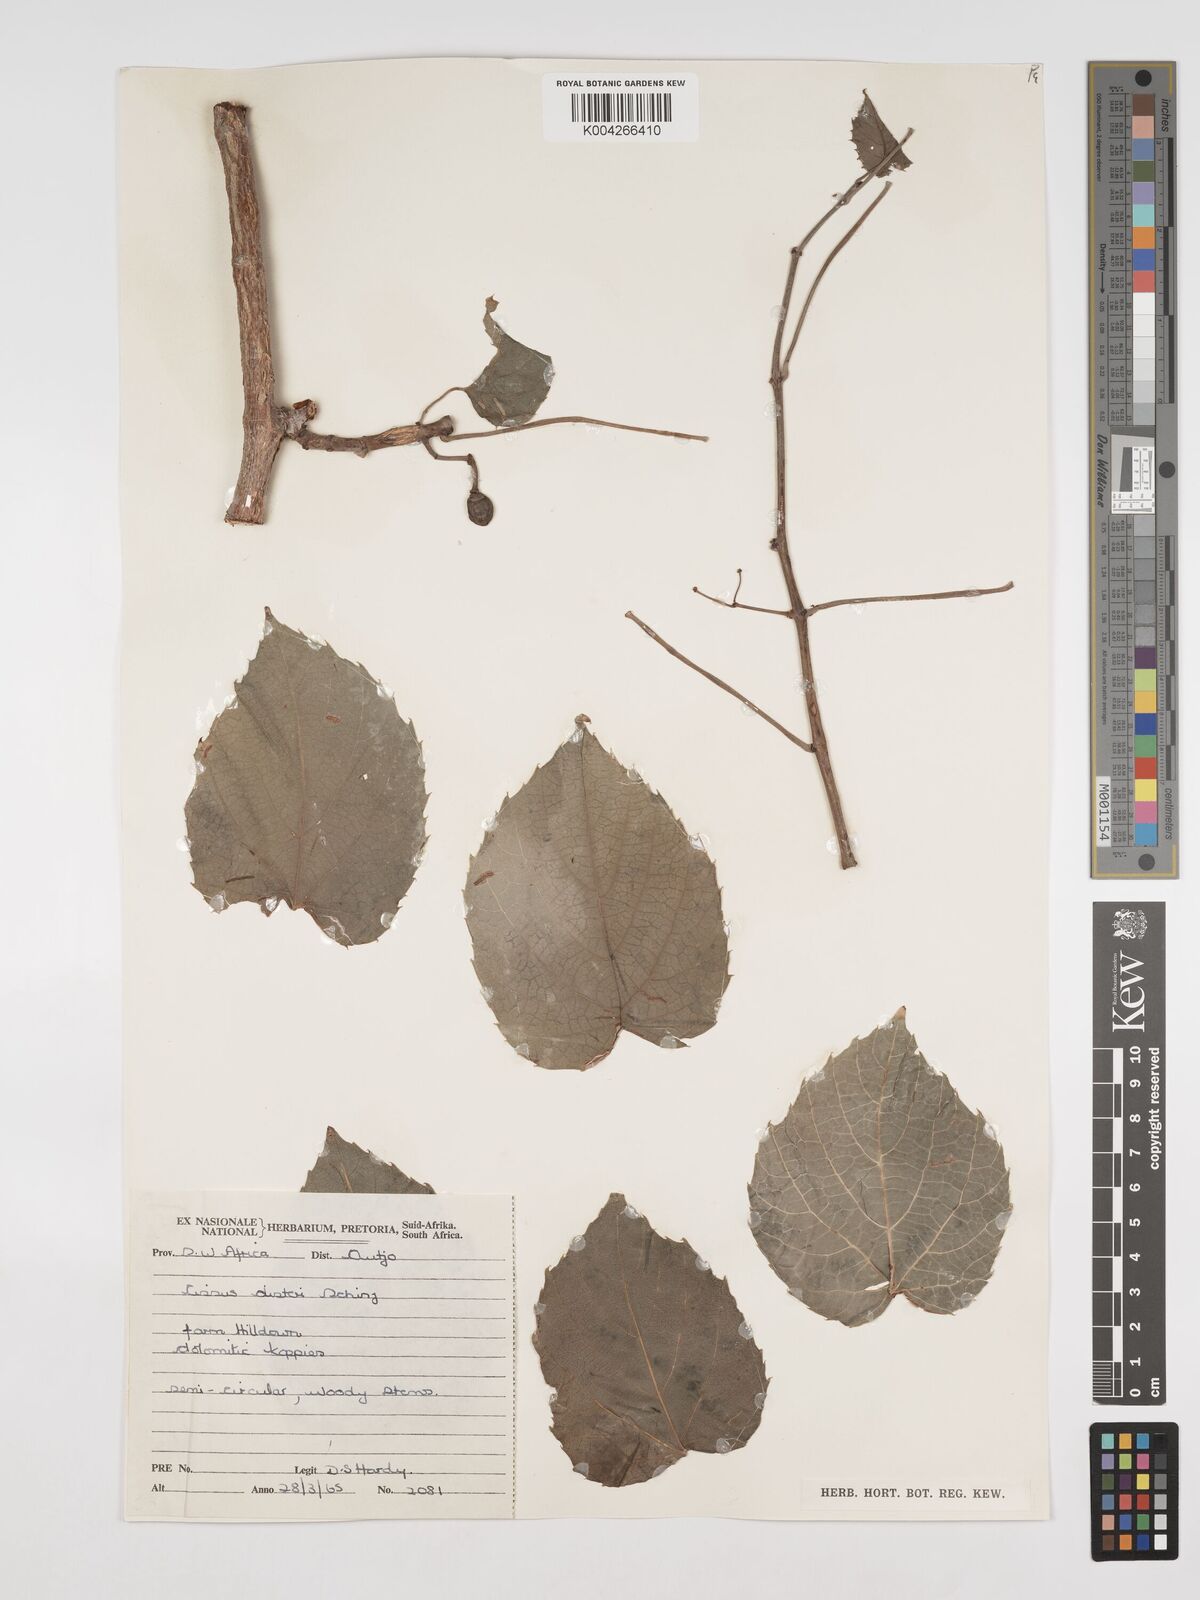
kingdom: Plantae
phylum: Tracheophyta
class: Magnoliopsida
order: Vitales
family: Vitaceae
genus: Cissus
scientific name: Cissus nymphaeifolia
